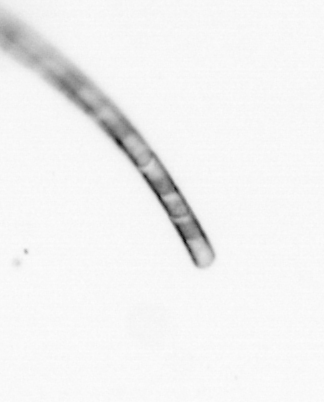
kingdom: Chromista
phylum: Ochrophyta
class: Bacillariophyceae
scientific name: Bacillariophyceae
